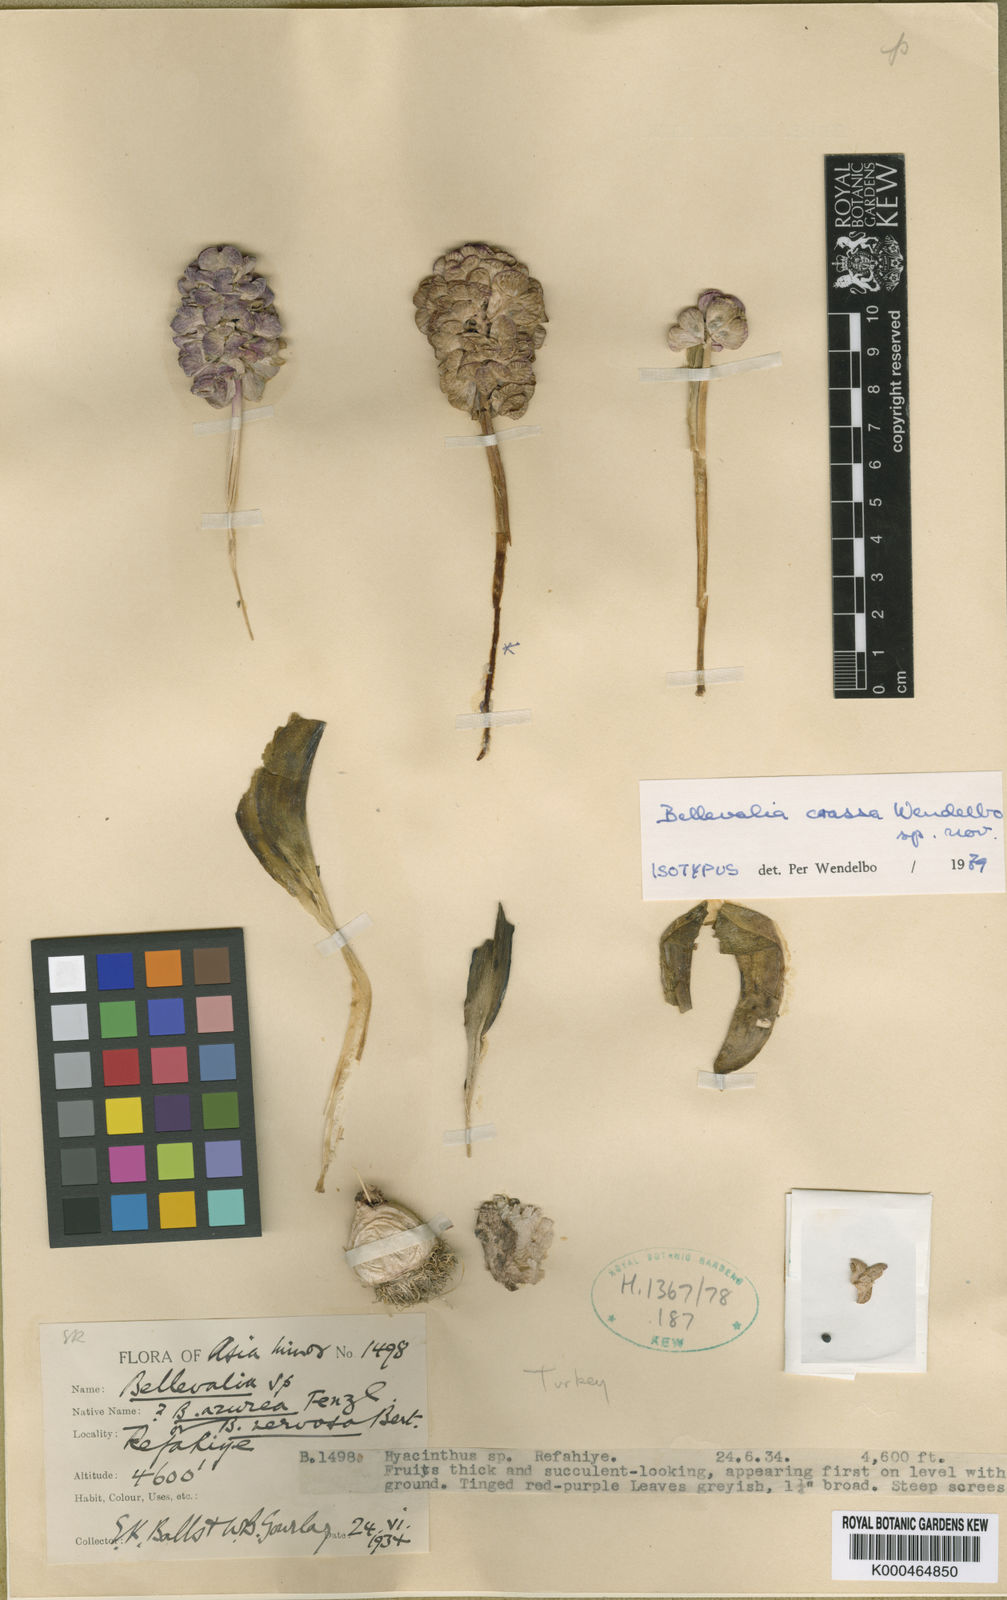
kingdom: Plantae
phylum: Tracheophyta
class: Liliopsida
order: Asparagales
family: Asparagaceae
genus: Bellevalia
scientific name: Bellevalia crassa
